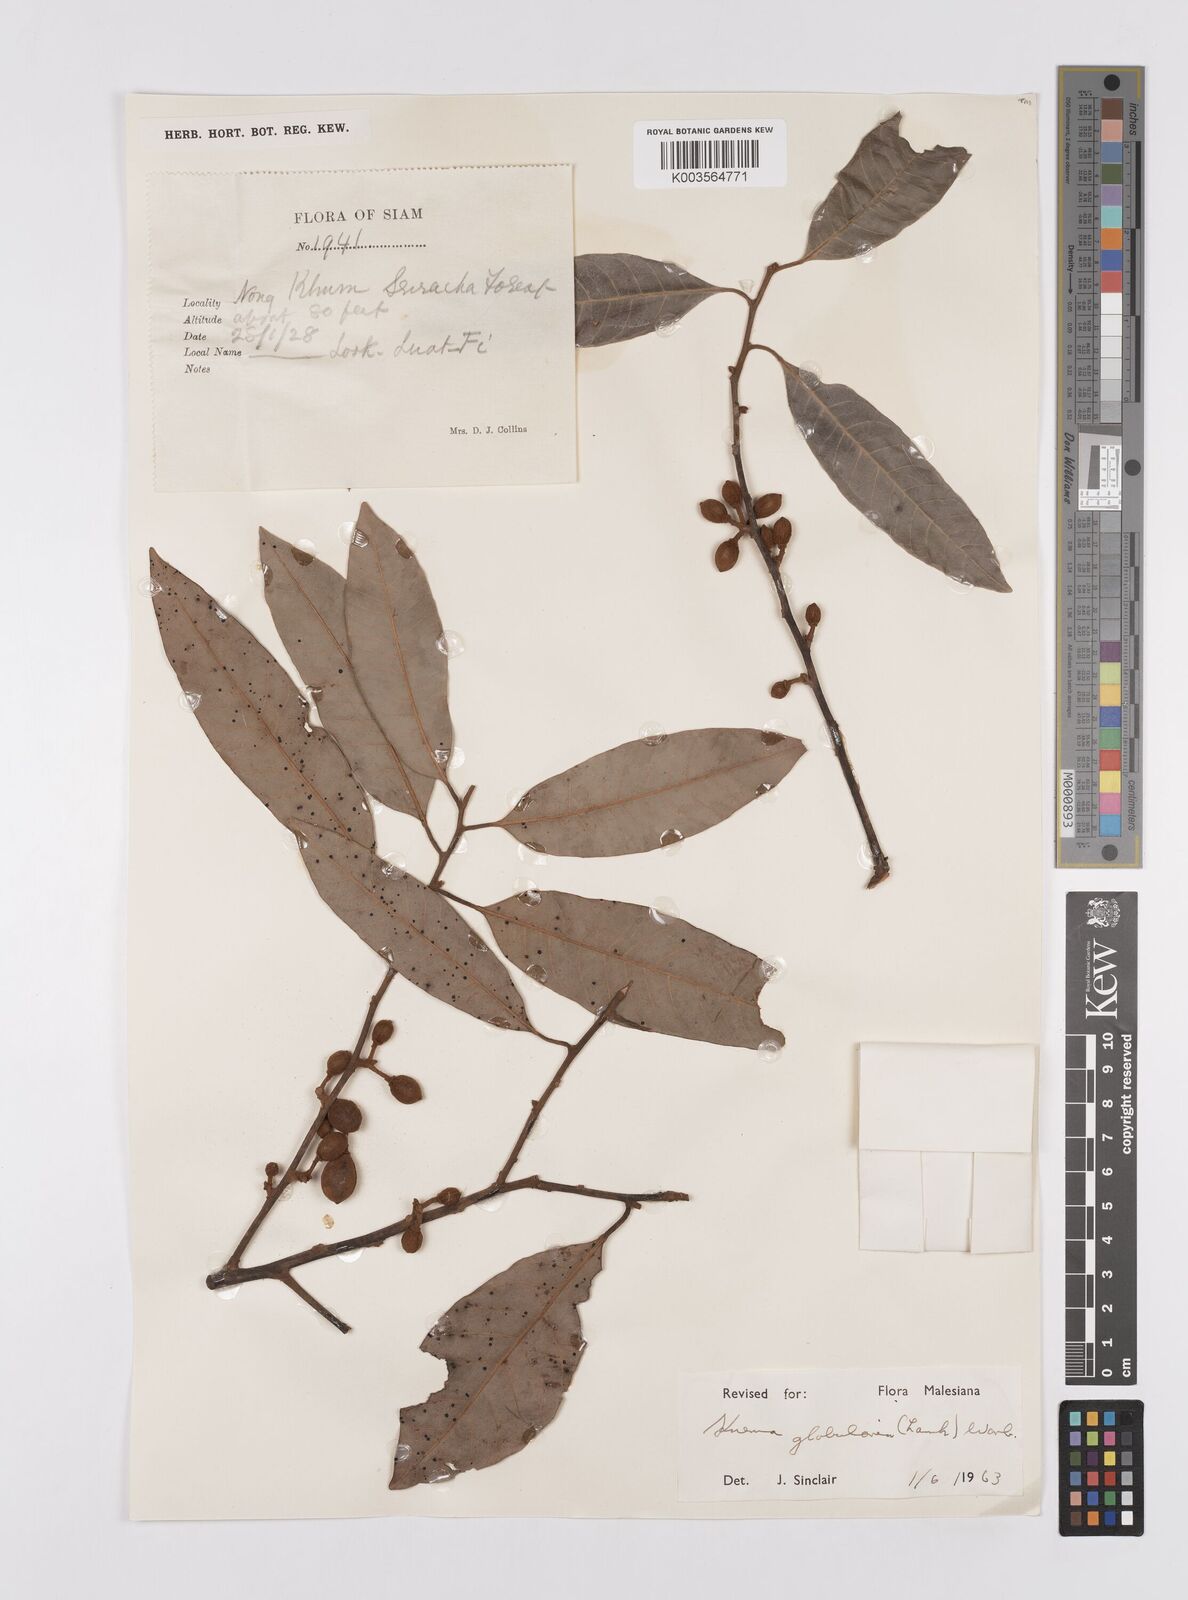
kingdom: Plantae
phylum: Tracheophyta
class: Magnoliopsida
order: Magnoliales
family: Myristicaceae
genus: Knema
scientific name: Knema globularia
